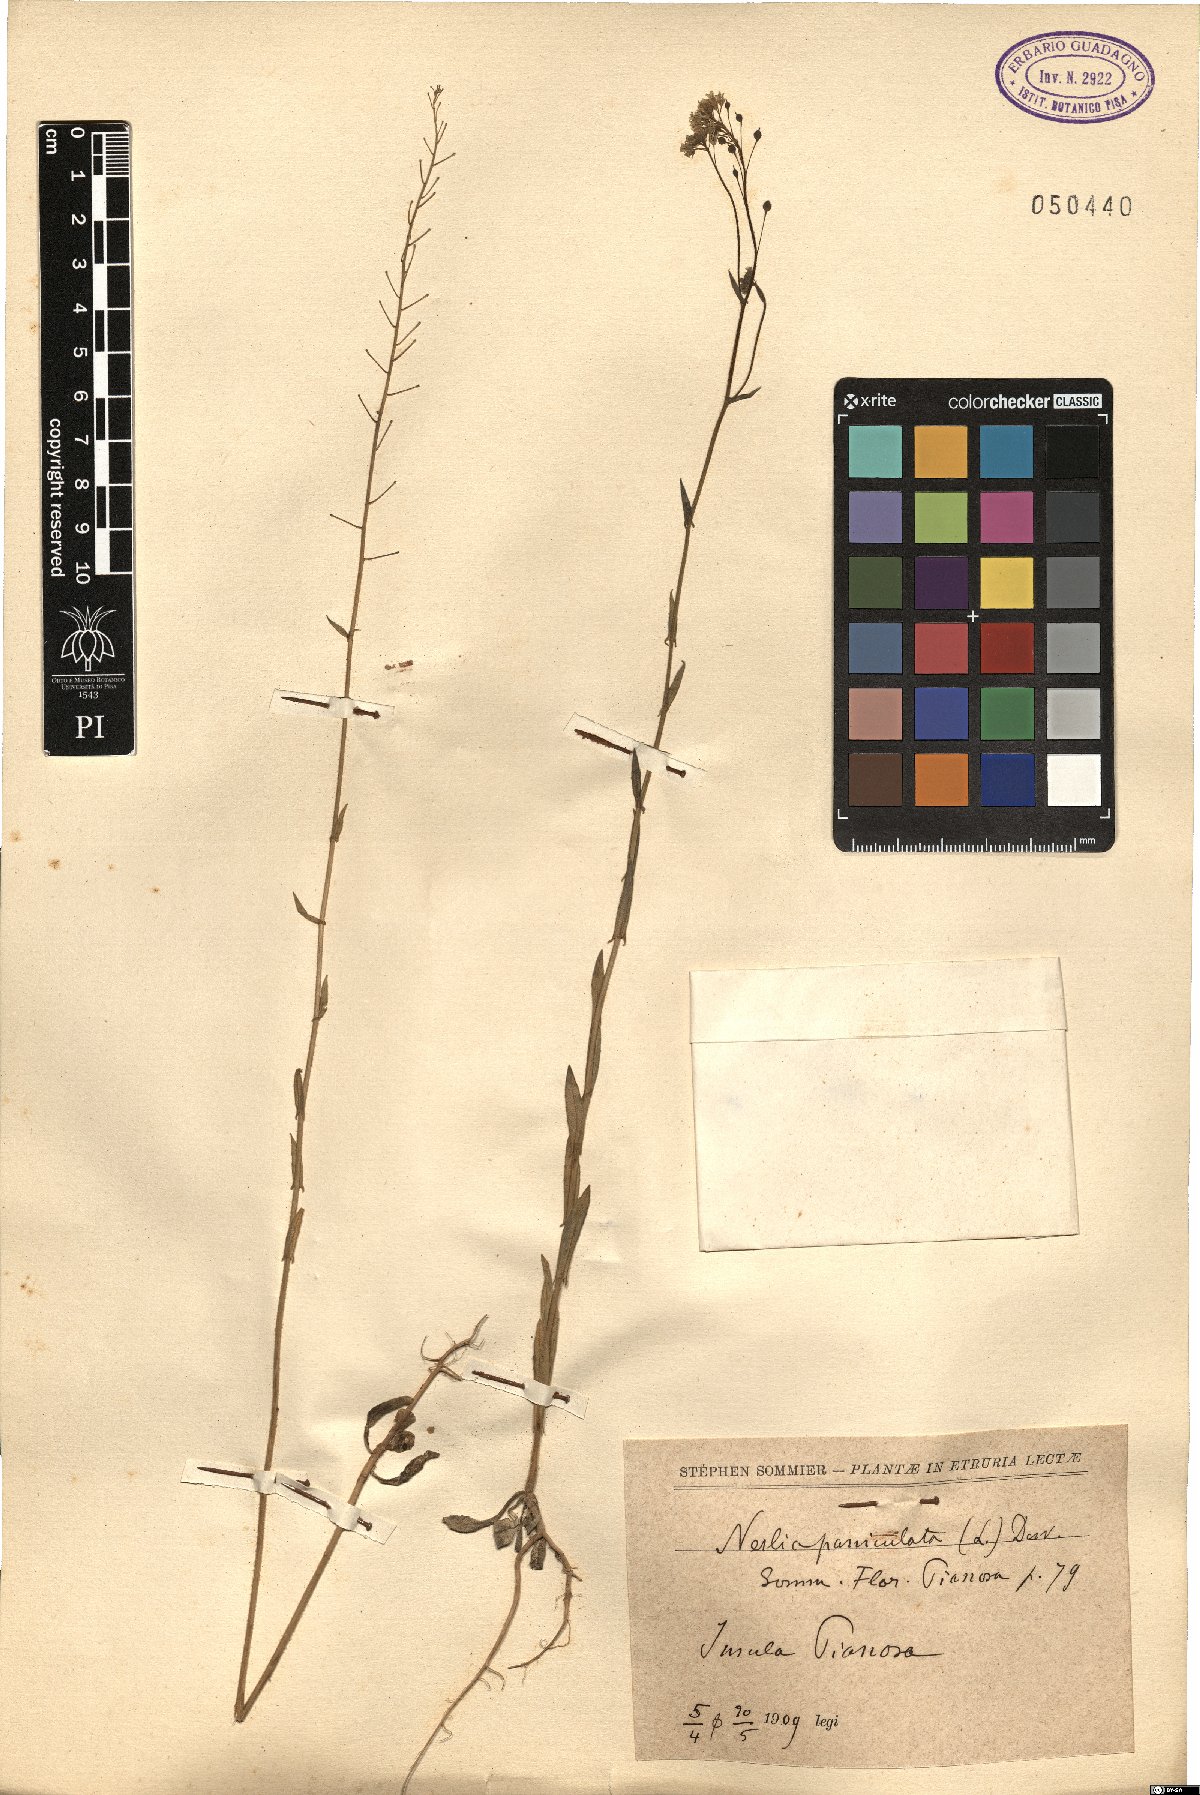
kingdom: Plantae
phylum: Tracheophyta
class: Magnoliopsida
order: Brassicales
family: Brassicaceae
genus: Neslia
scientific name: Neslia paniculata
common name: Ball mustard
